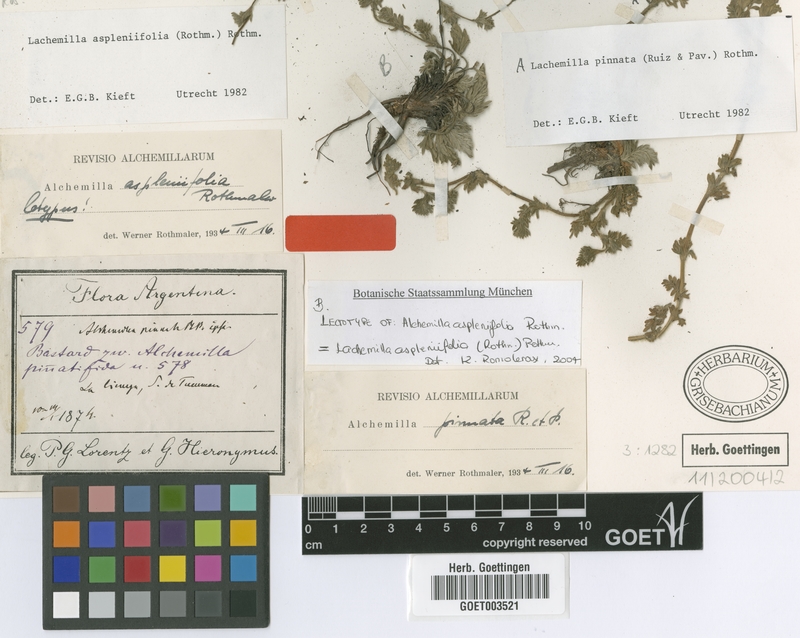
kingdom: Plantae
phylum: Tracheophyta
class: Magnoliopsida
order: Rosales
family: Rosaceae
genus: Lachemilla
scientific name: Lachemilla aspleniifolia
